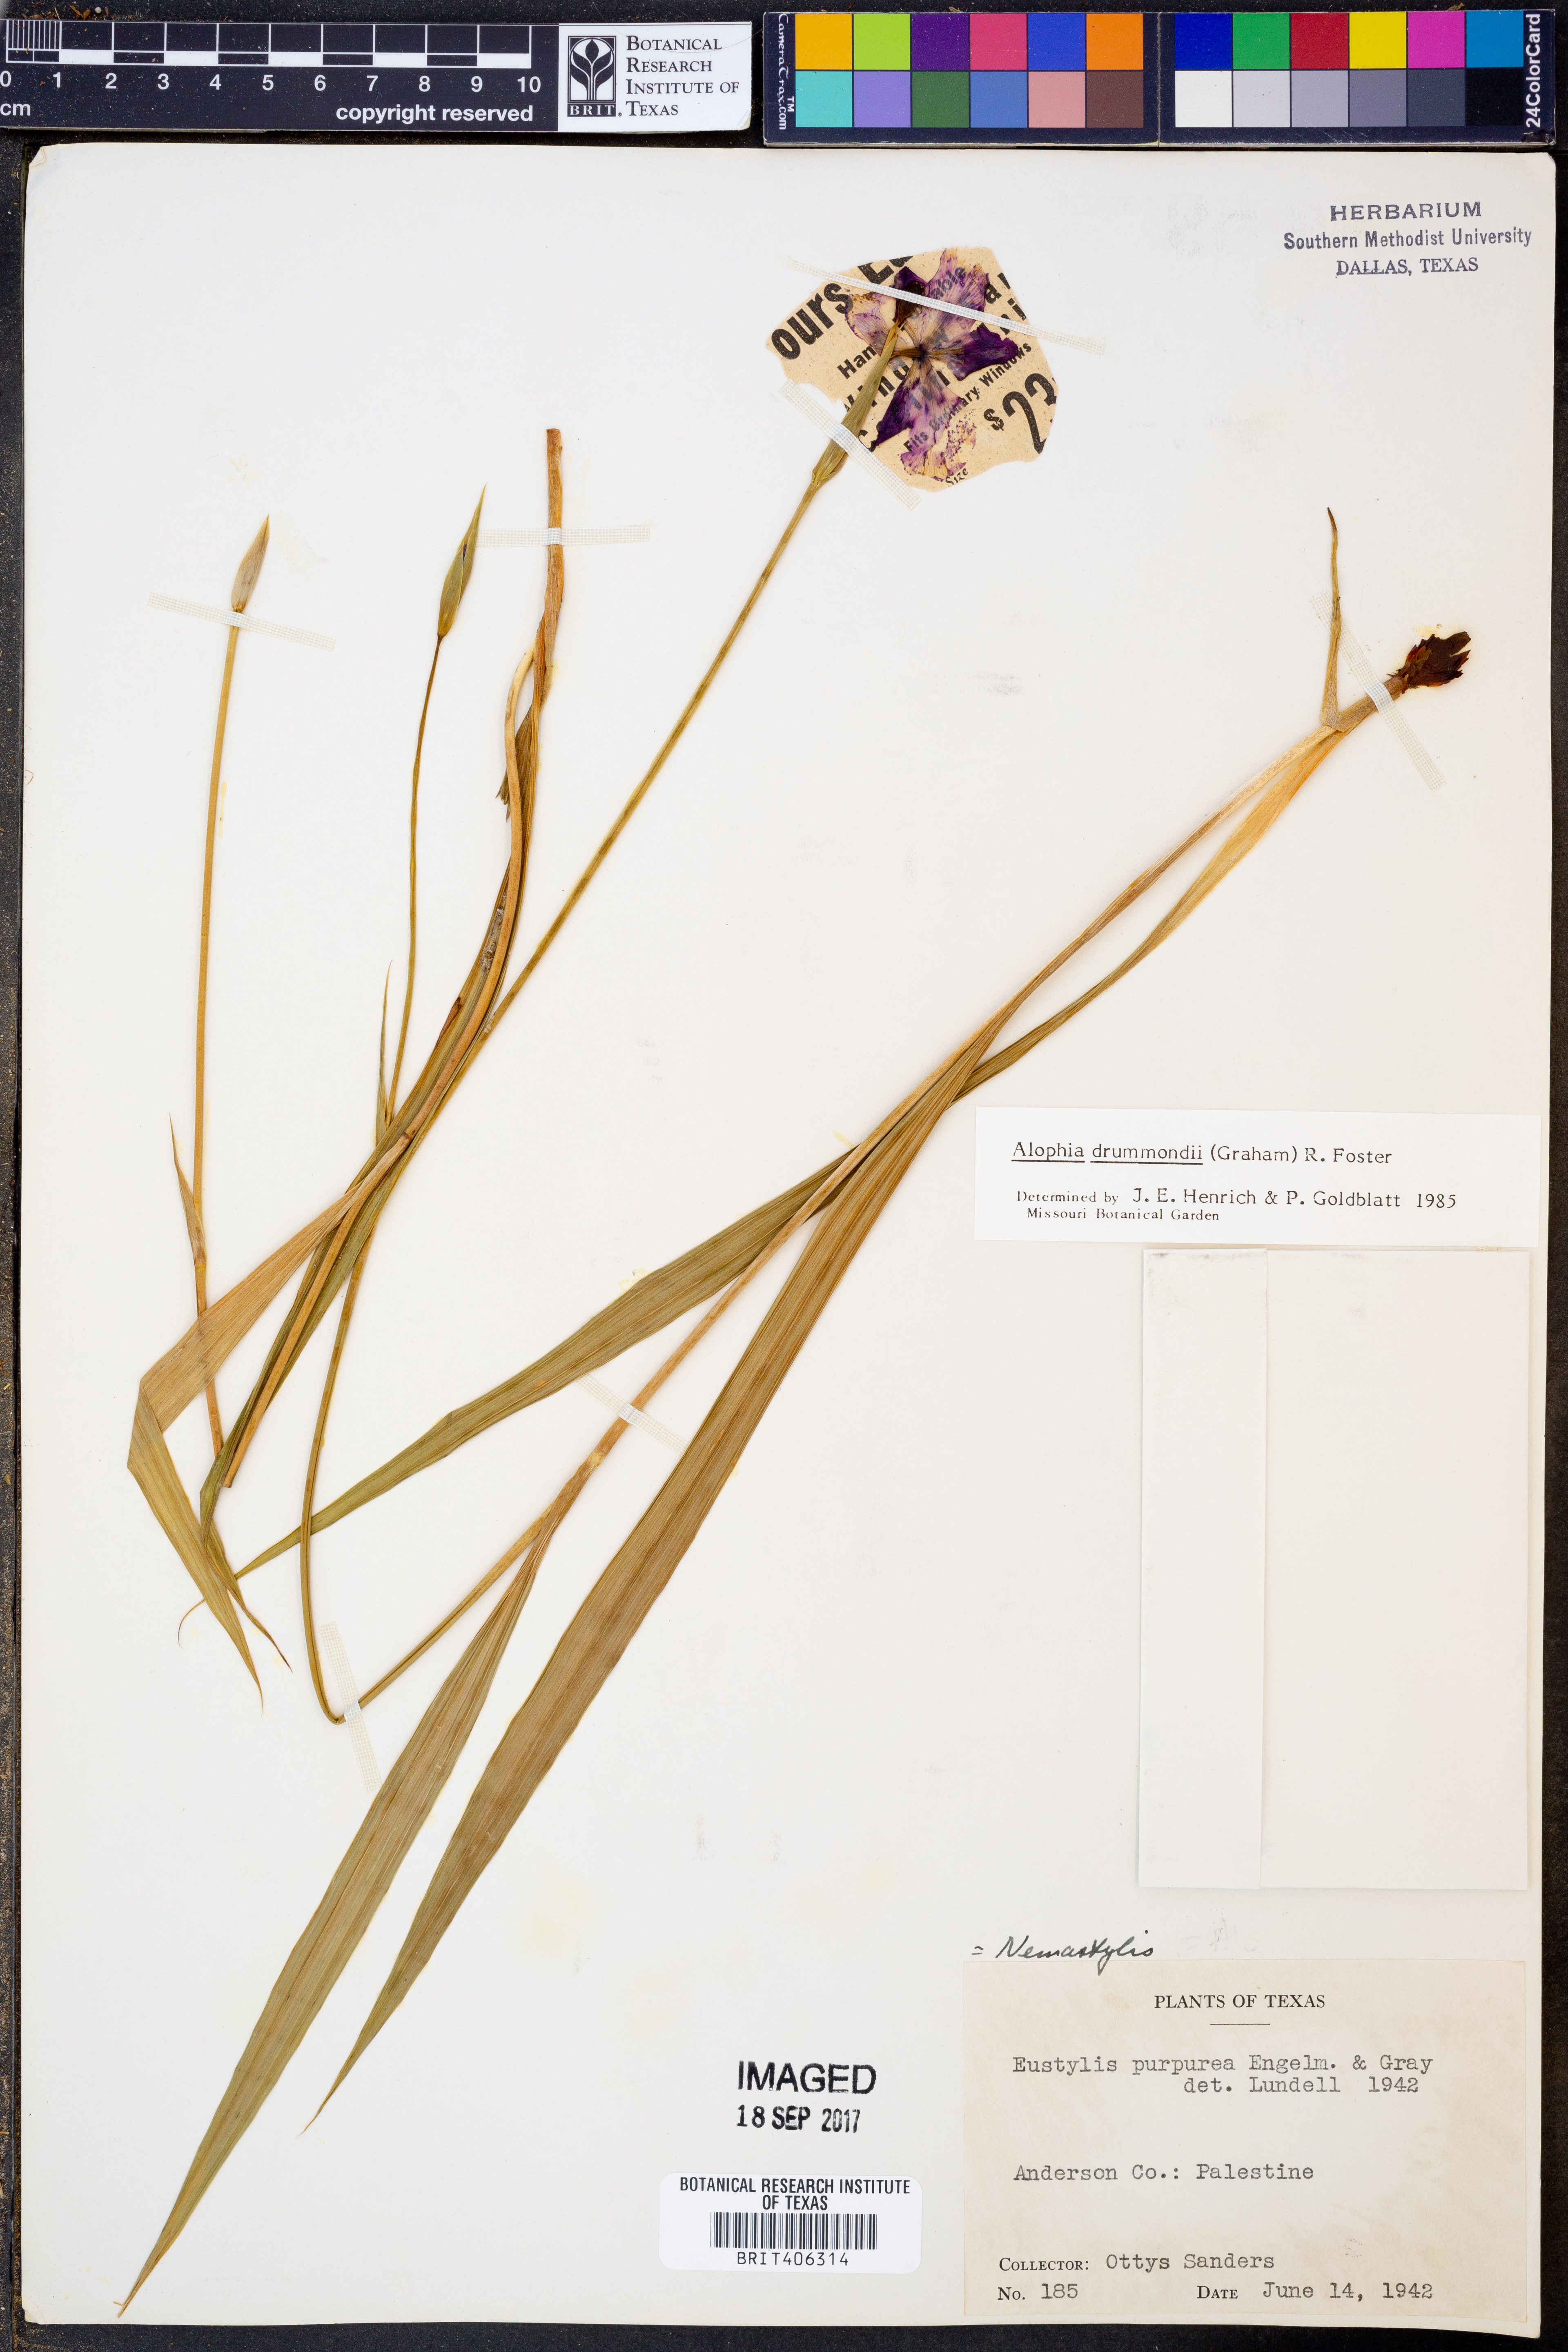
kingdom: Plantae
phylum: Tracheophyta
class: Liliopsida
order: Asparagales
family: Iridaceae
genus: Alophia
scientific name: Alophia drummondii
